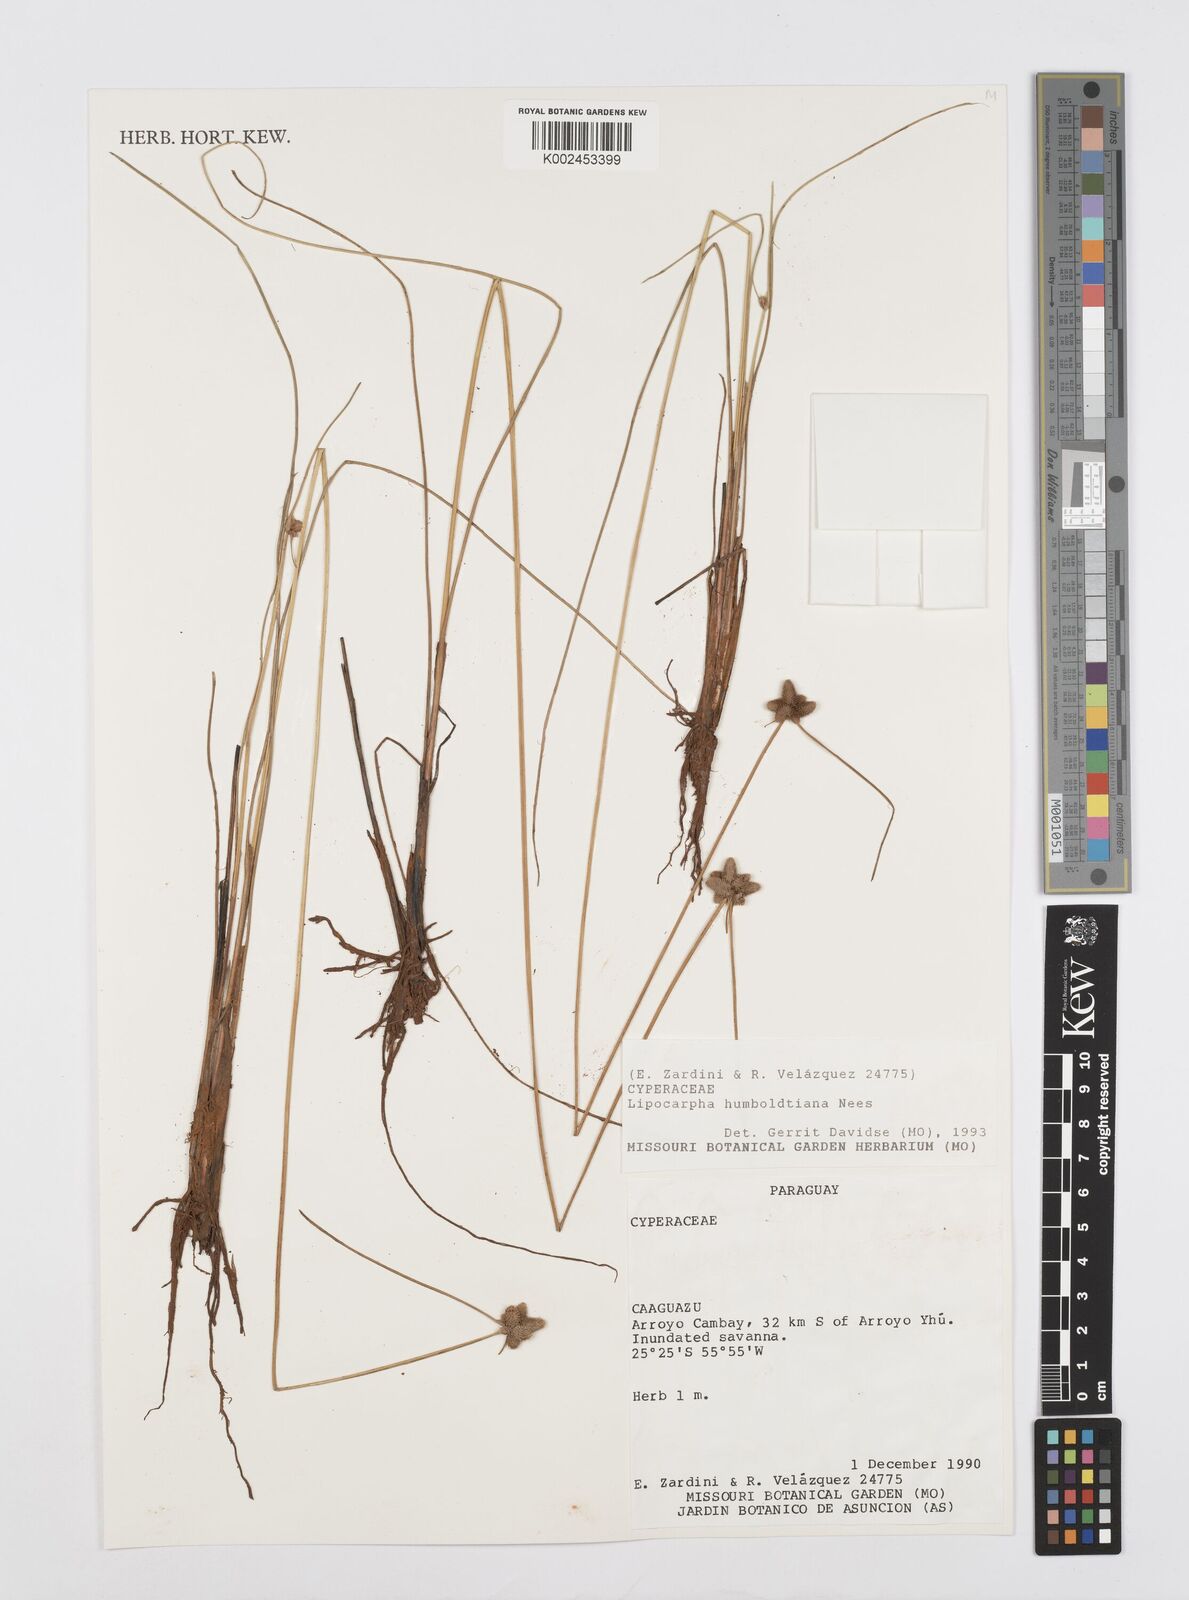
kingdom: Plantae
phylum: Tracheophyta
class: Liliopsida
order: Poales
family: Cyperaceae
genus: Cyperus
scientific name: Cyperus lanceolatus
